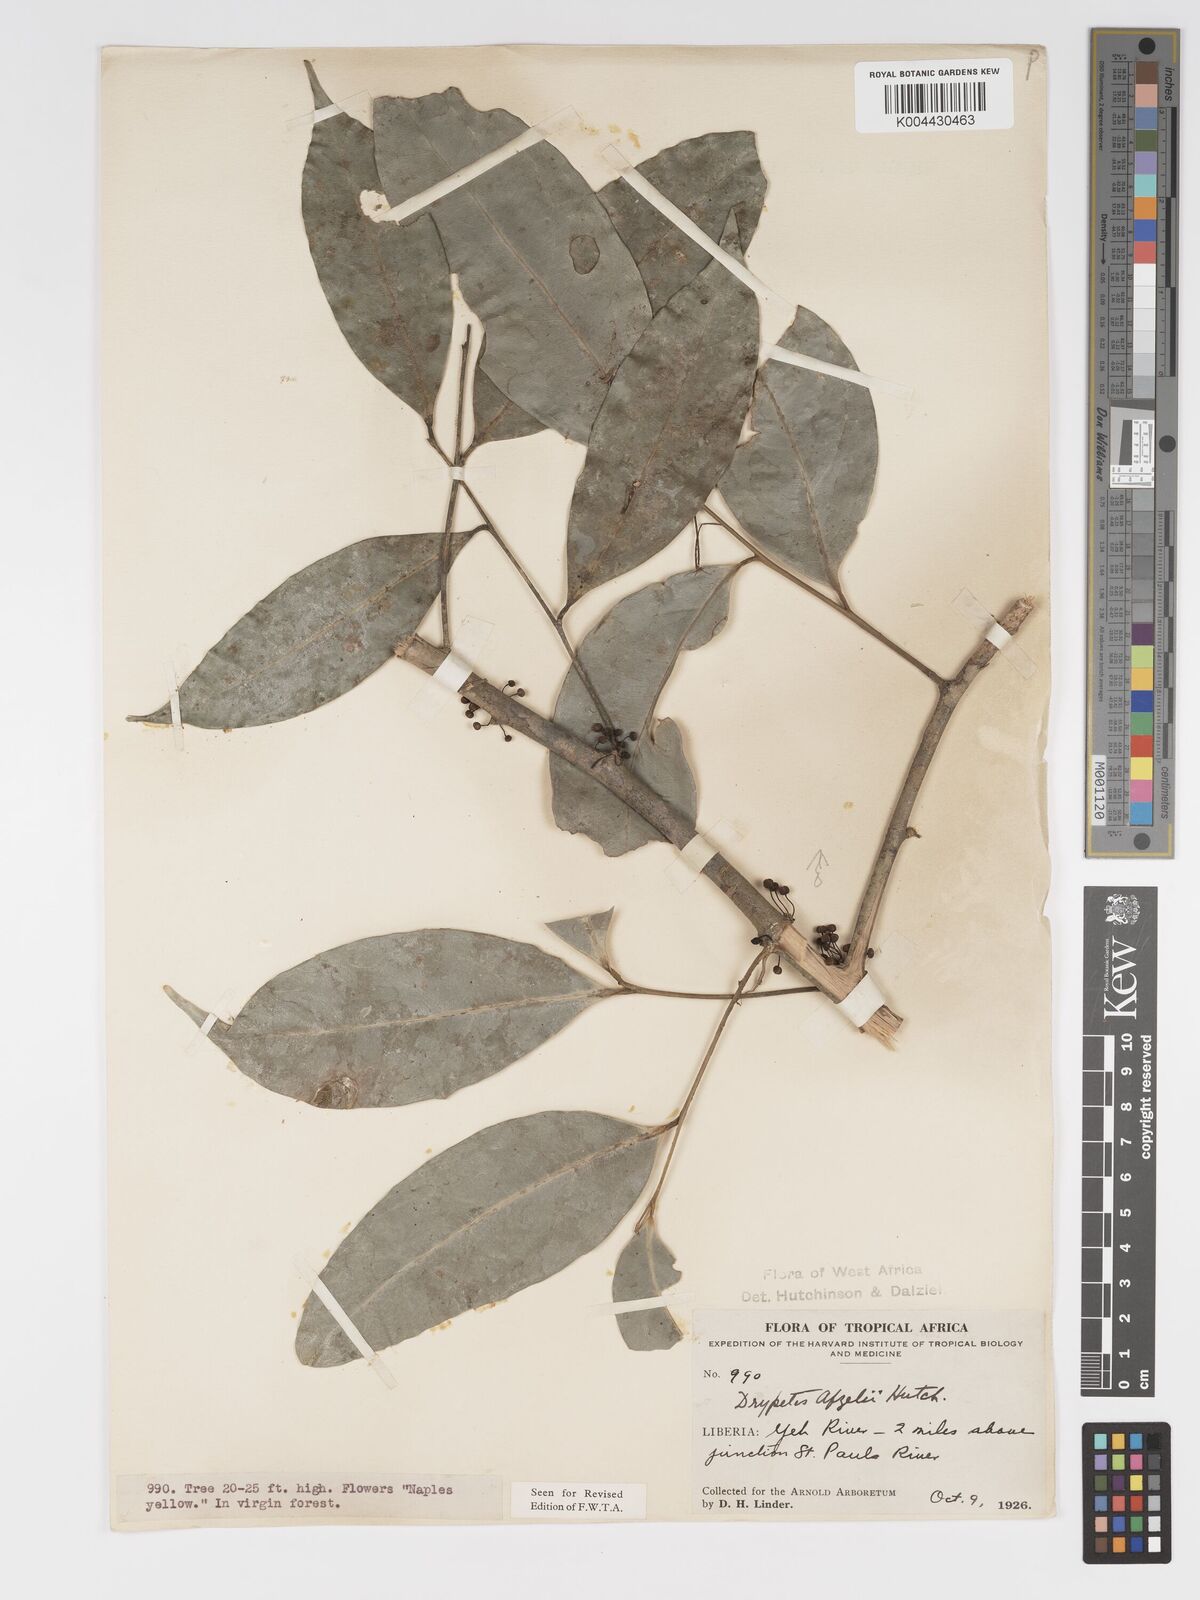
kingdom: Plantae
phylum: Tracheophyta
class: Magnoliopsida
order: Malpighiales
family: Putranjivaceae
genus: Drypetes
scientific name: Drypetes afzelii
